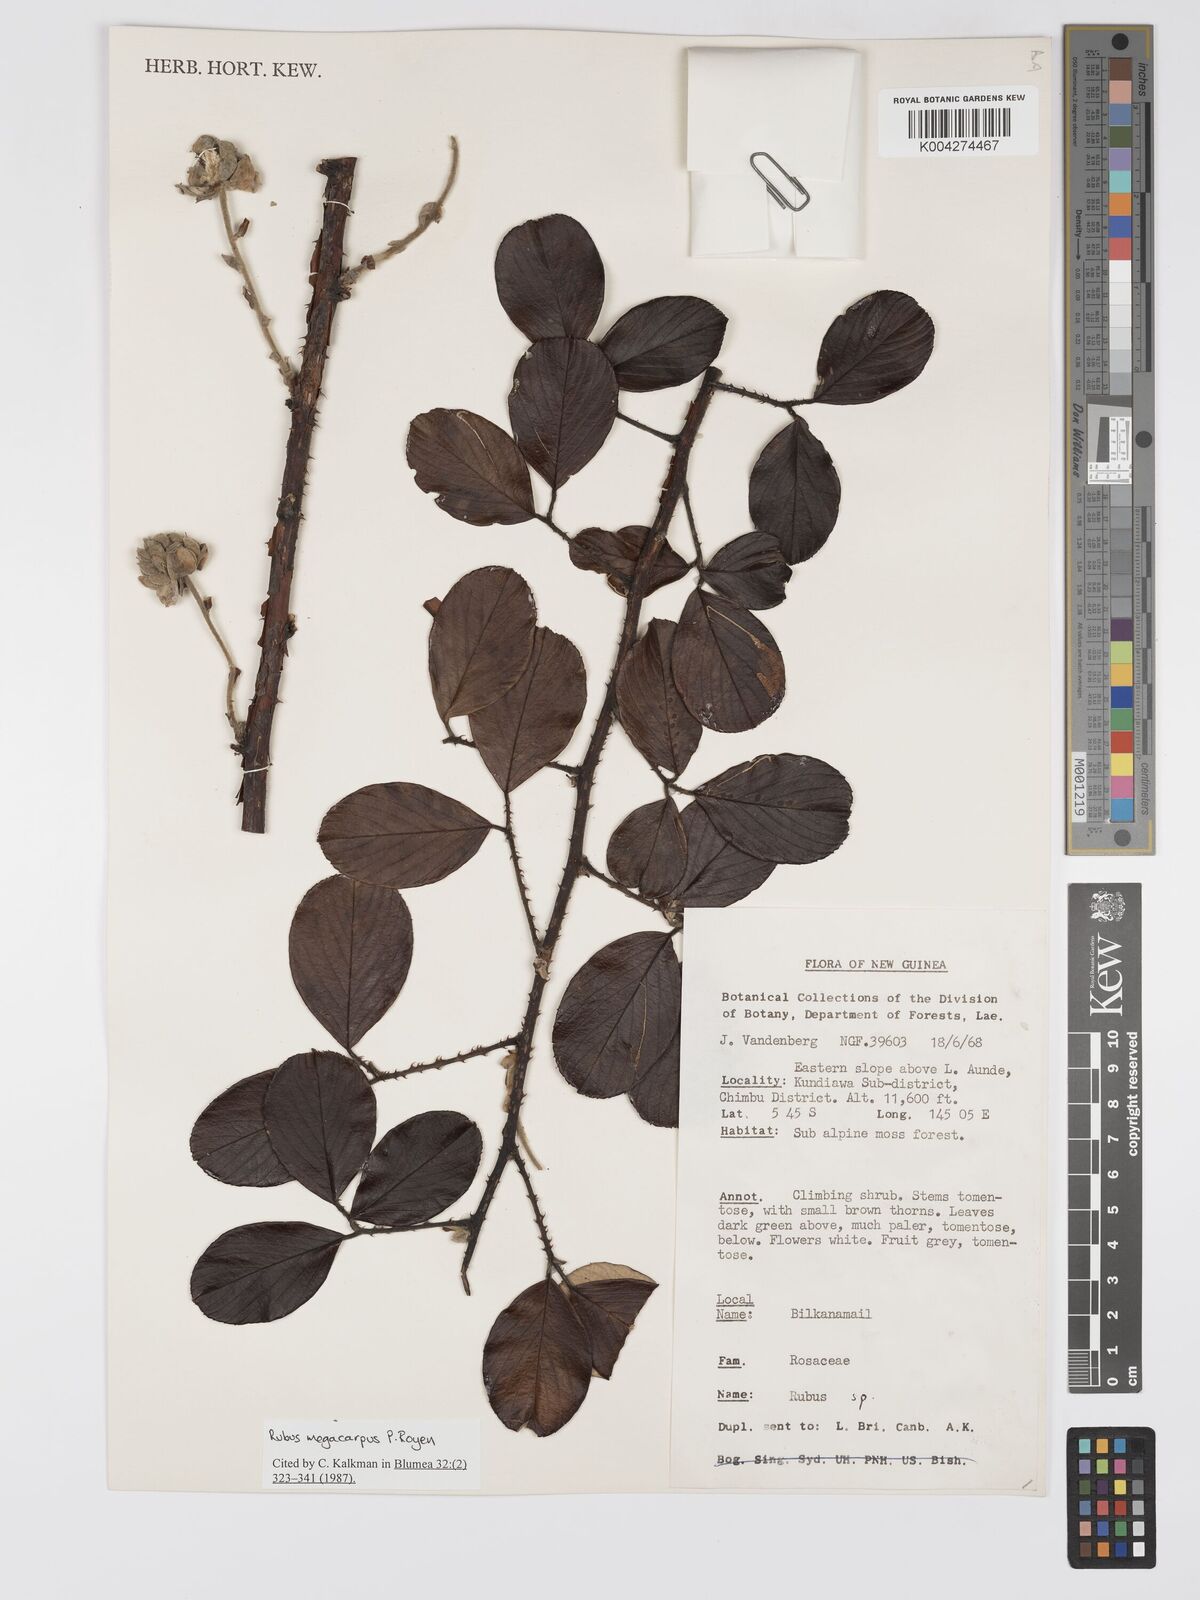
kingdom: Plantae
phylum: Tracheophyta
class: Magnoliopsida
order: Rosales
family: Rosaceae
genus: Rubus
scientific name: Rubus megacarpus
